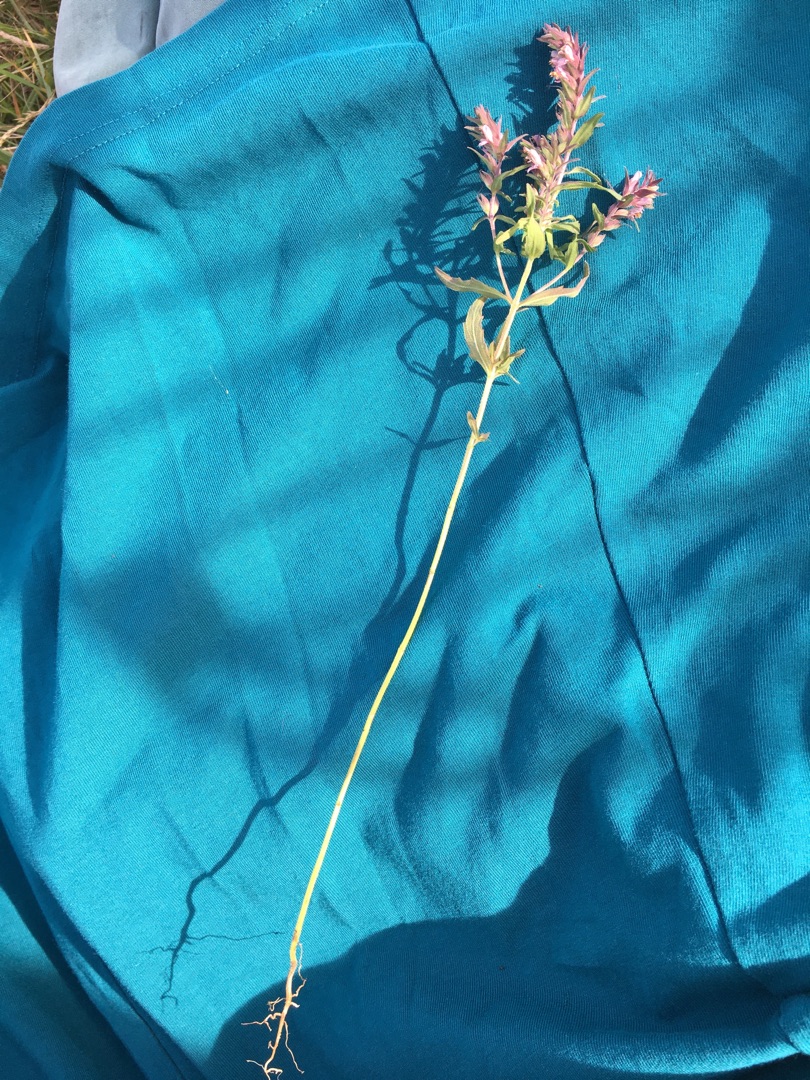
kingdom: Plantae
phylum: Tracheophyta
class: Magnoliopsida
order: Lamiales
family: Orobanchaceae
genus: Odontites
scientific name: Odontites vernus
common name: Mark-rødtop
